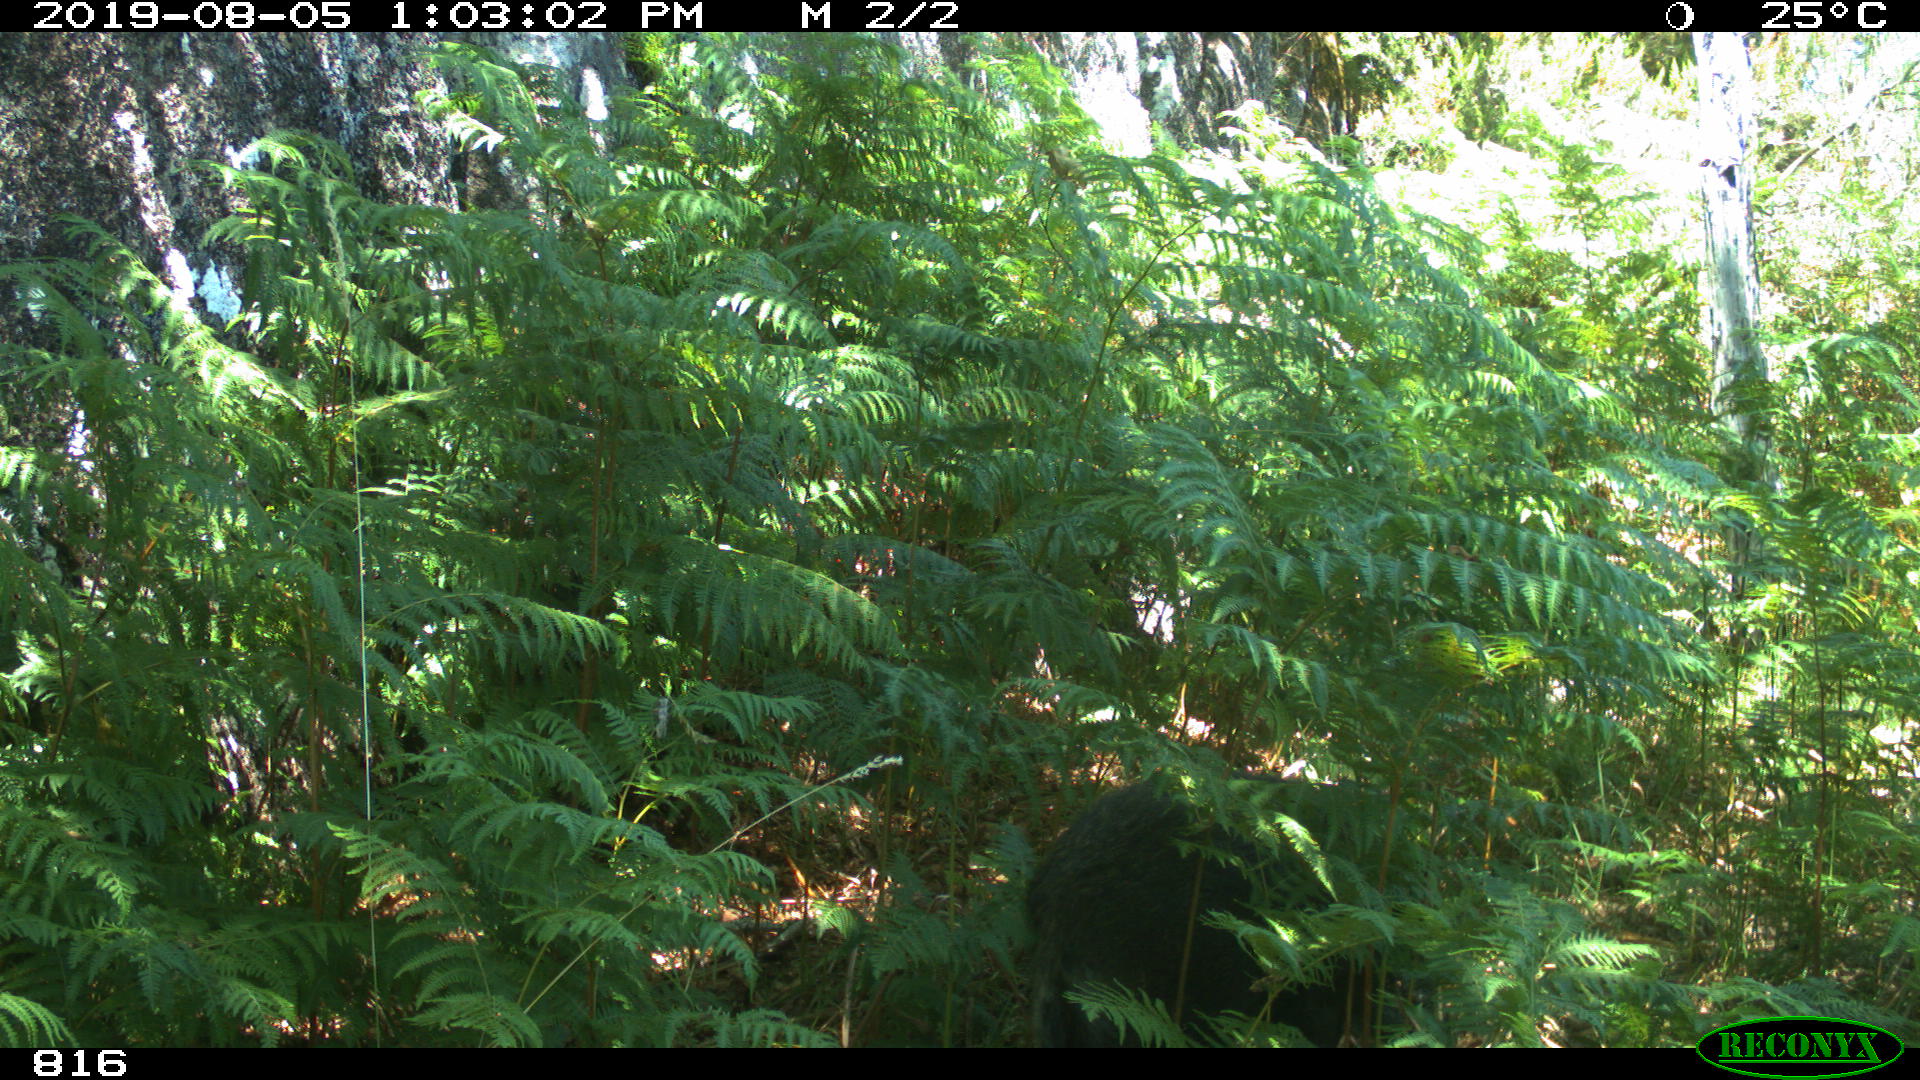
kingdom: Animalia
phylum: Chordata
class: Mammalia
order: Artiodactyla
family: Suidae
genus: Sus
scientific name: Sus scrofa
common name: Wild boar
